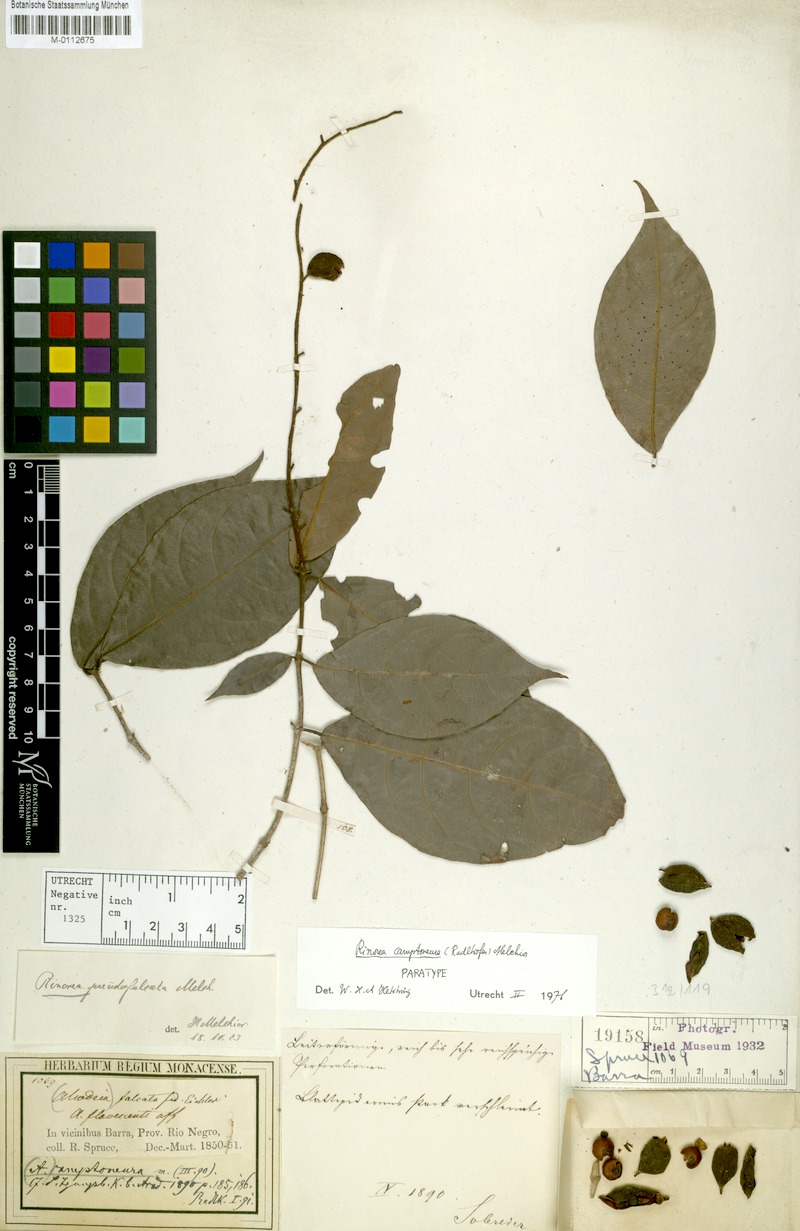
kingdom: Plantae
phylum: Tracheophyta
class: Magnoliopsida
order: Malpighiales
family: Violaceae
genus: Rinorea
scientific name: Rinorea camptoneura
